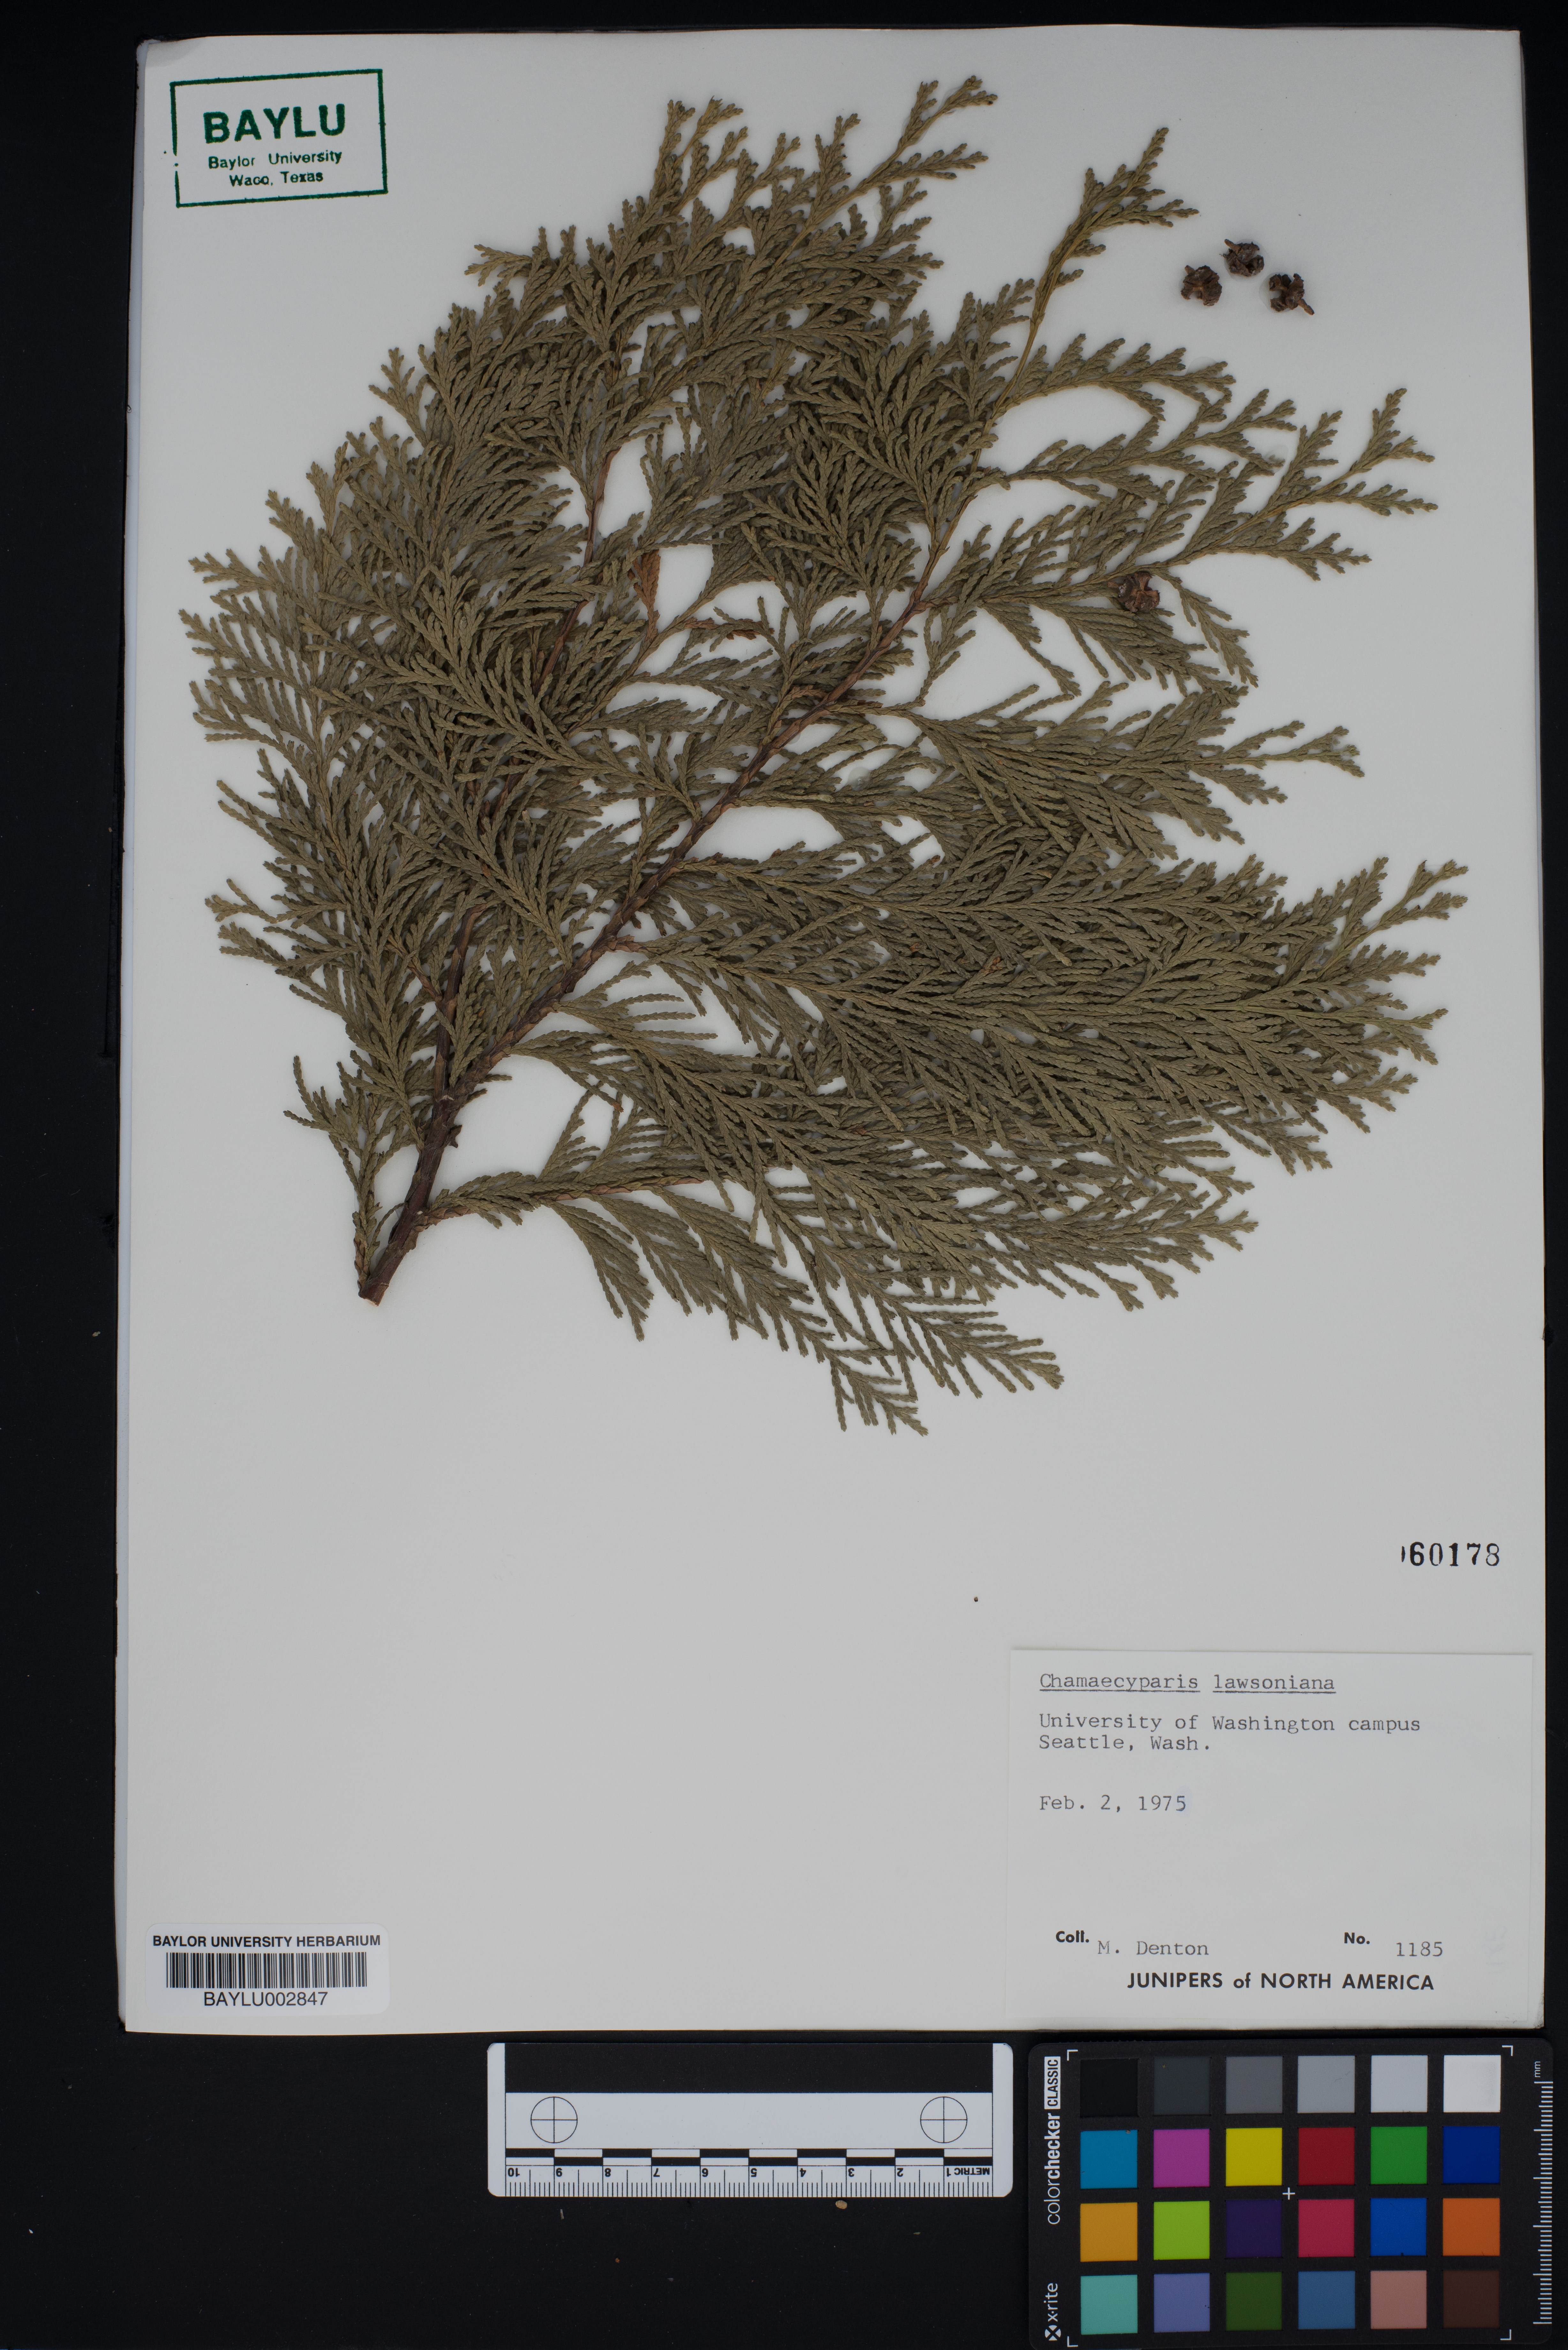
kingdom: Plantae
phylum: Tracheophyta
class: Pinopsida
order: Pinales
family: Cupressaceae
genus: Chamaecyparis
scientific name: Chamaecyparis lawsoniana
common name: Lawson's cypress
